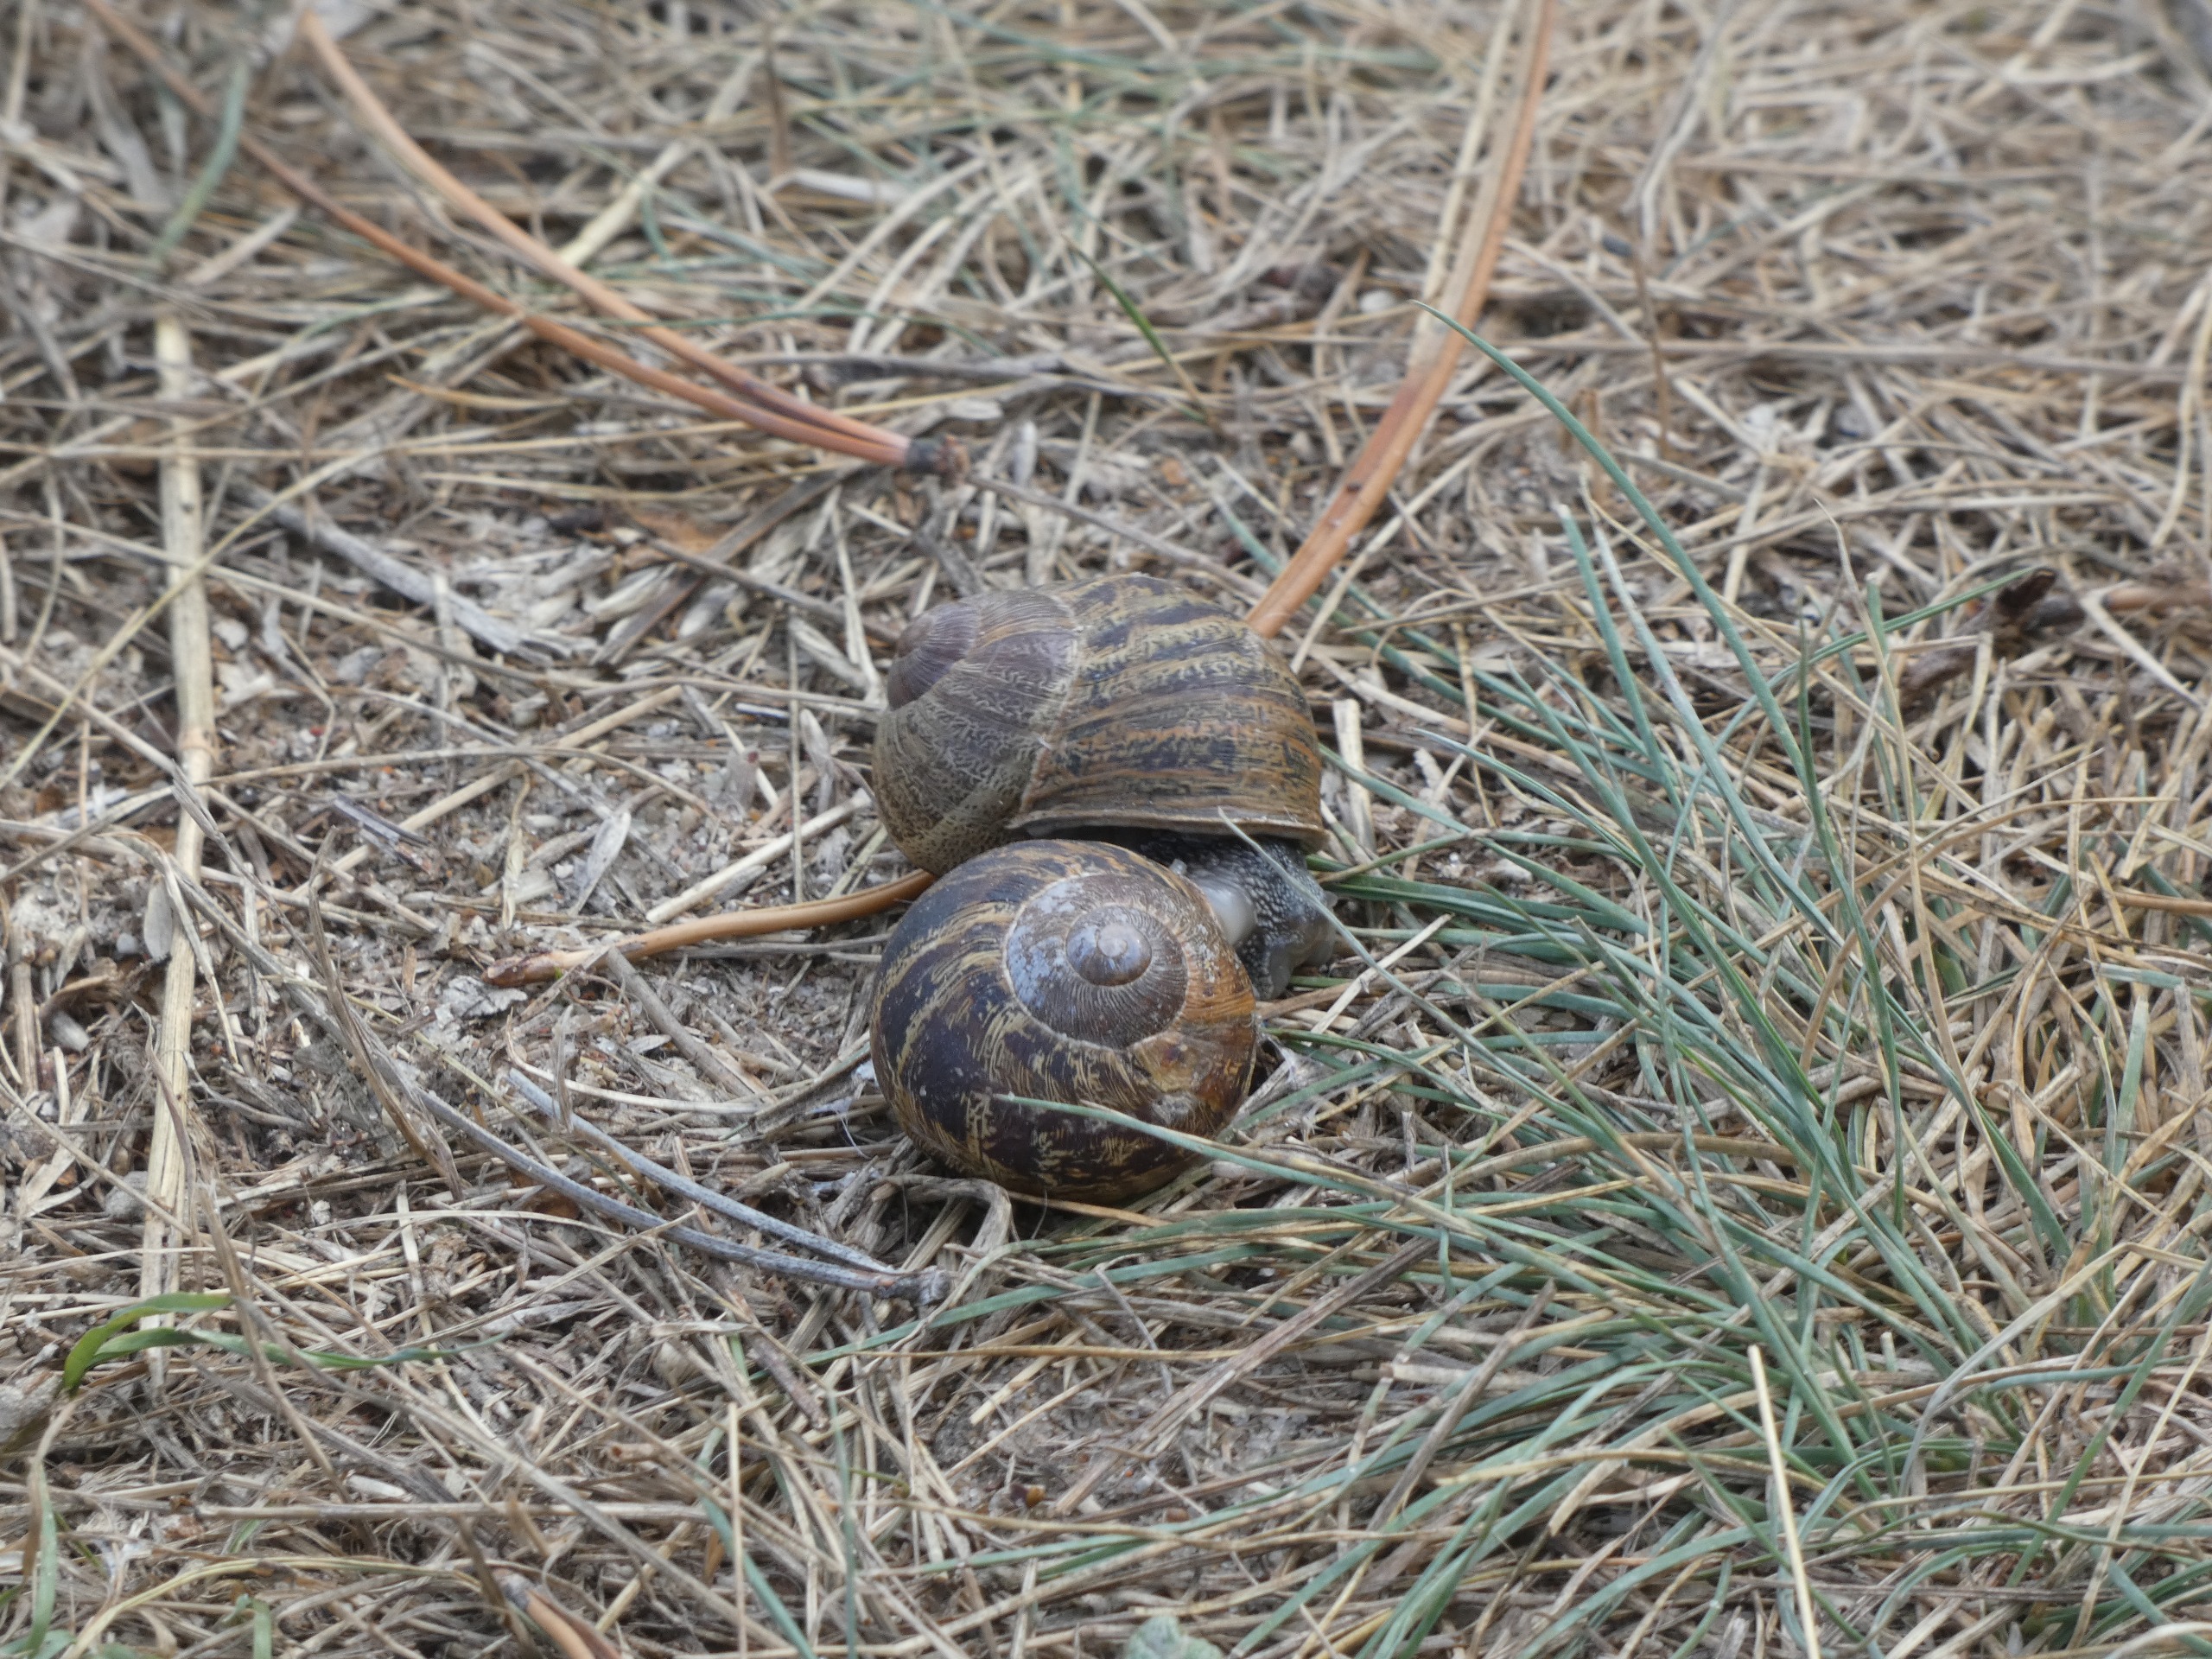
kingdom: Animalia
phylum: Mollusca
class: Gastropoda
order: Stylommatophora
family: Helicidae
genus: Cornu
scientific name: Cornu aspersum
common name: Plettet voldsnegl
